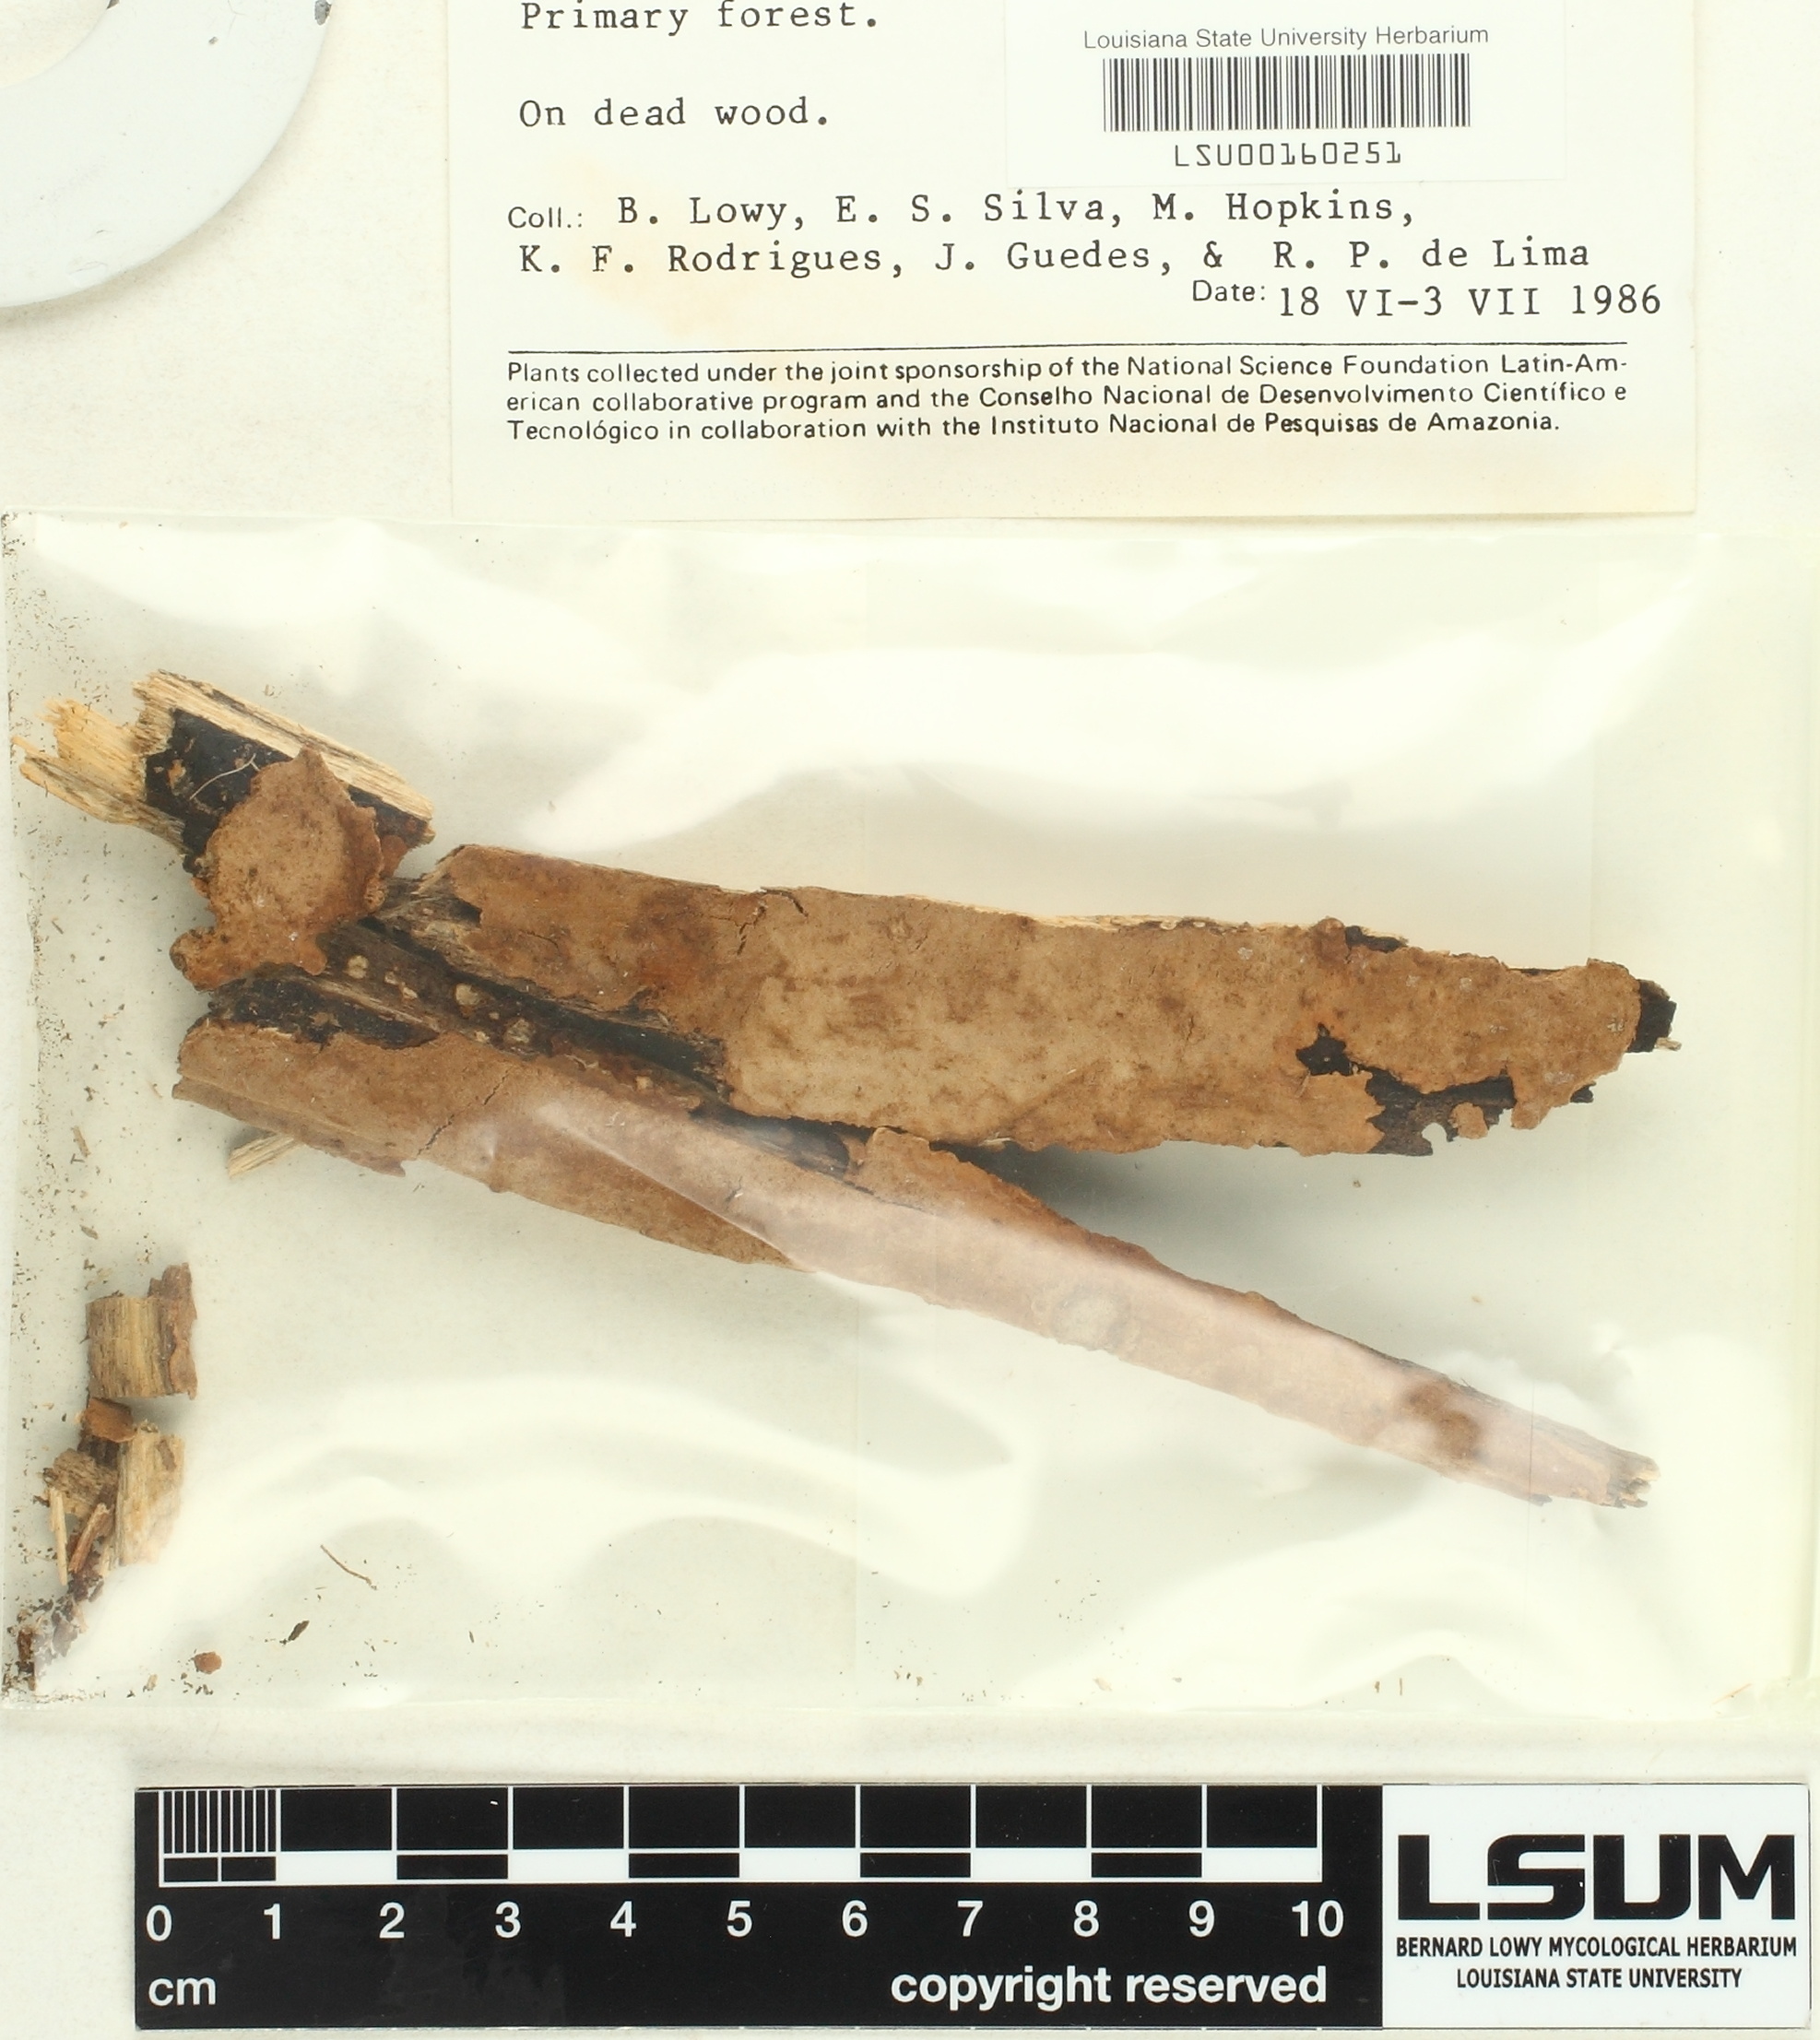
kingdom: Fungi
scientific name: Fungi
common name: Fungi
